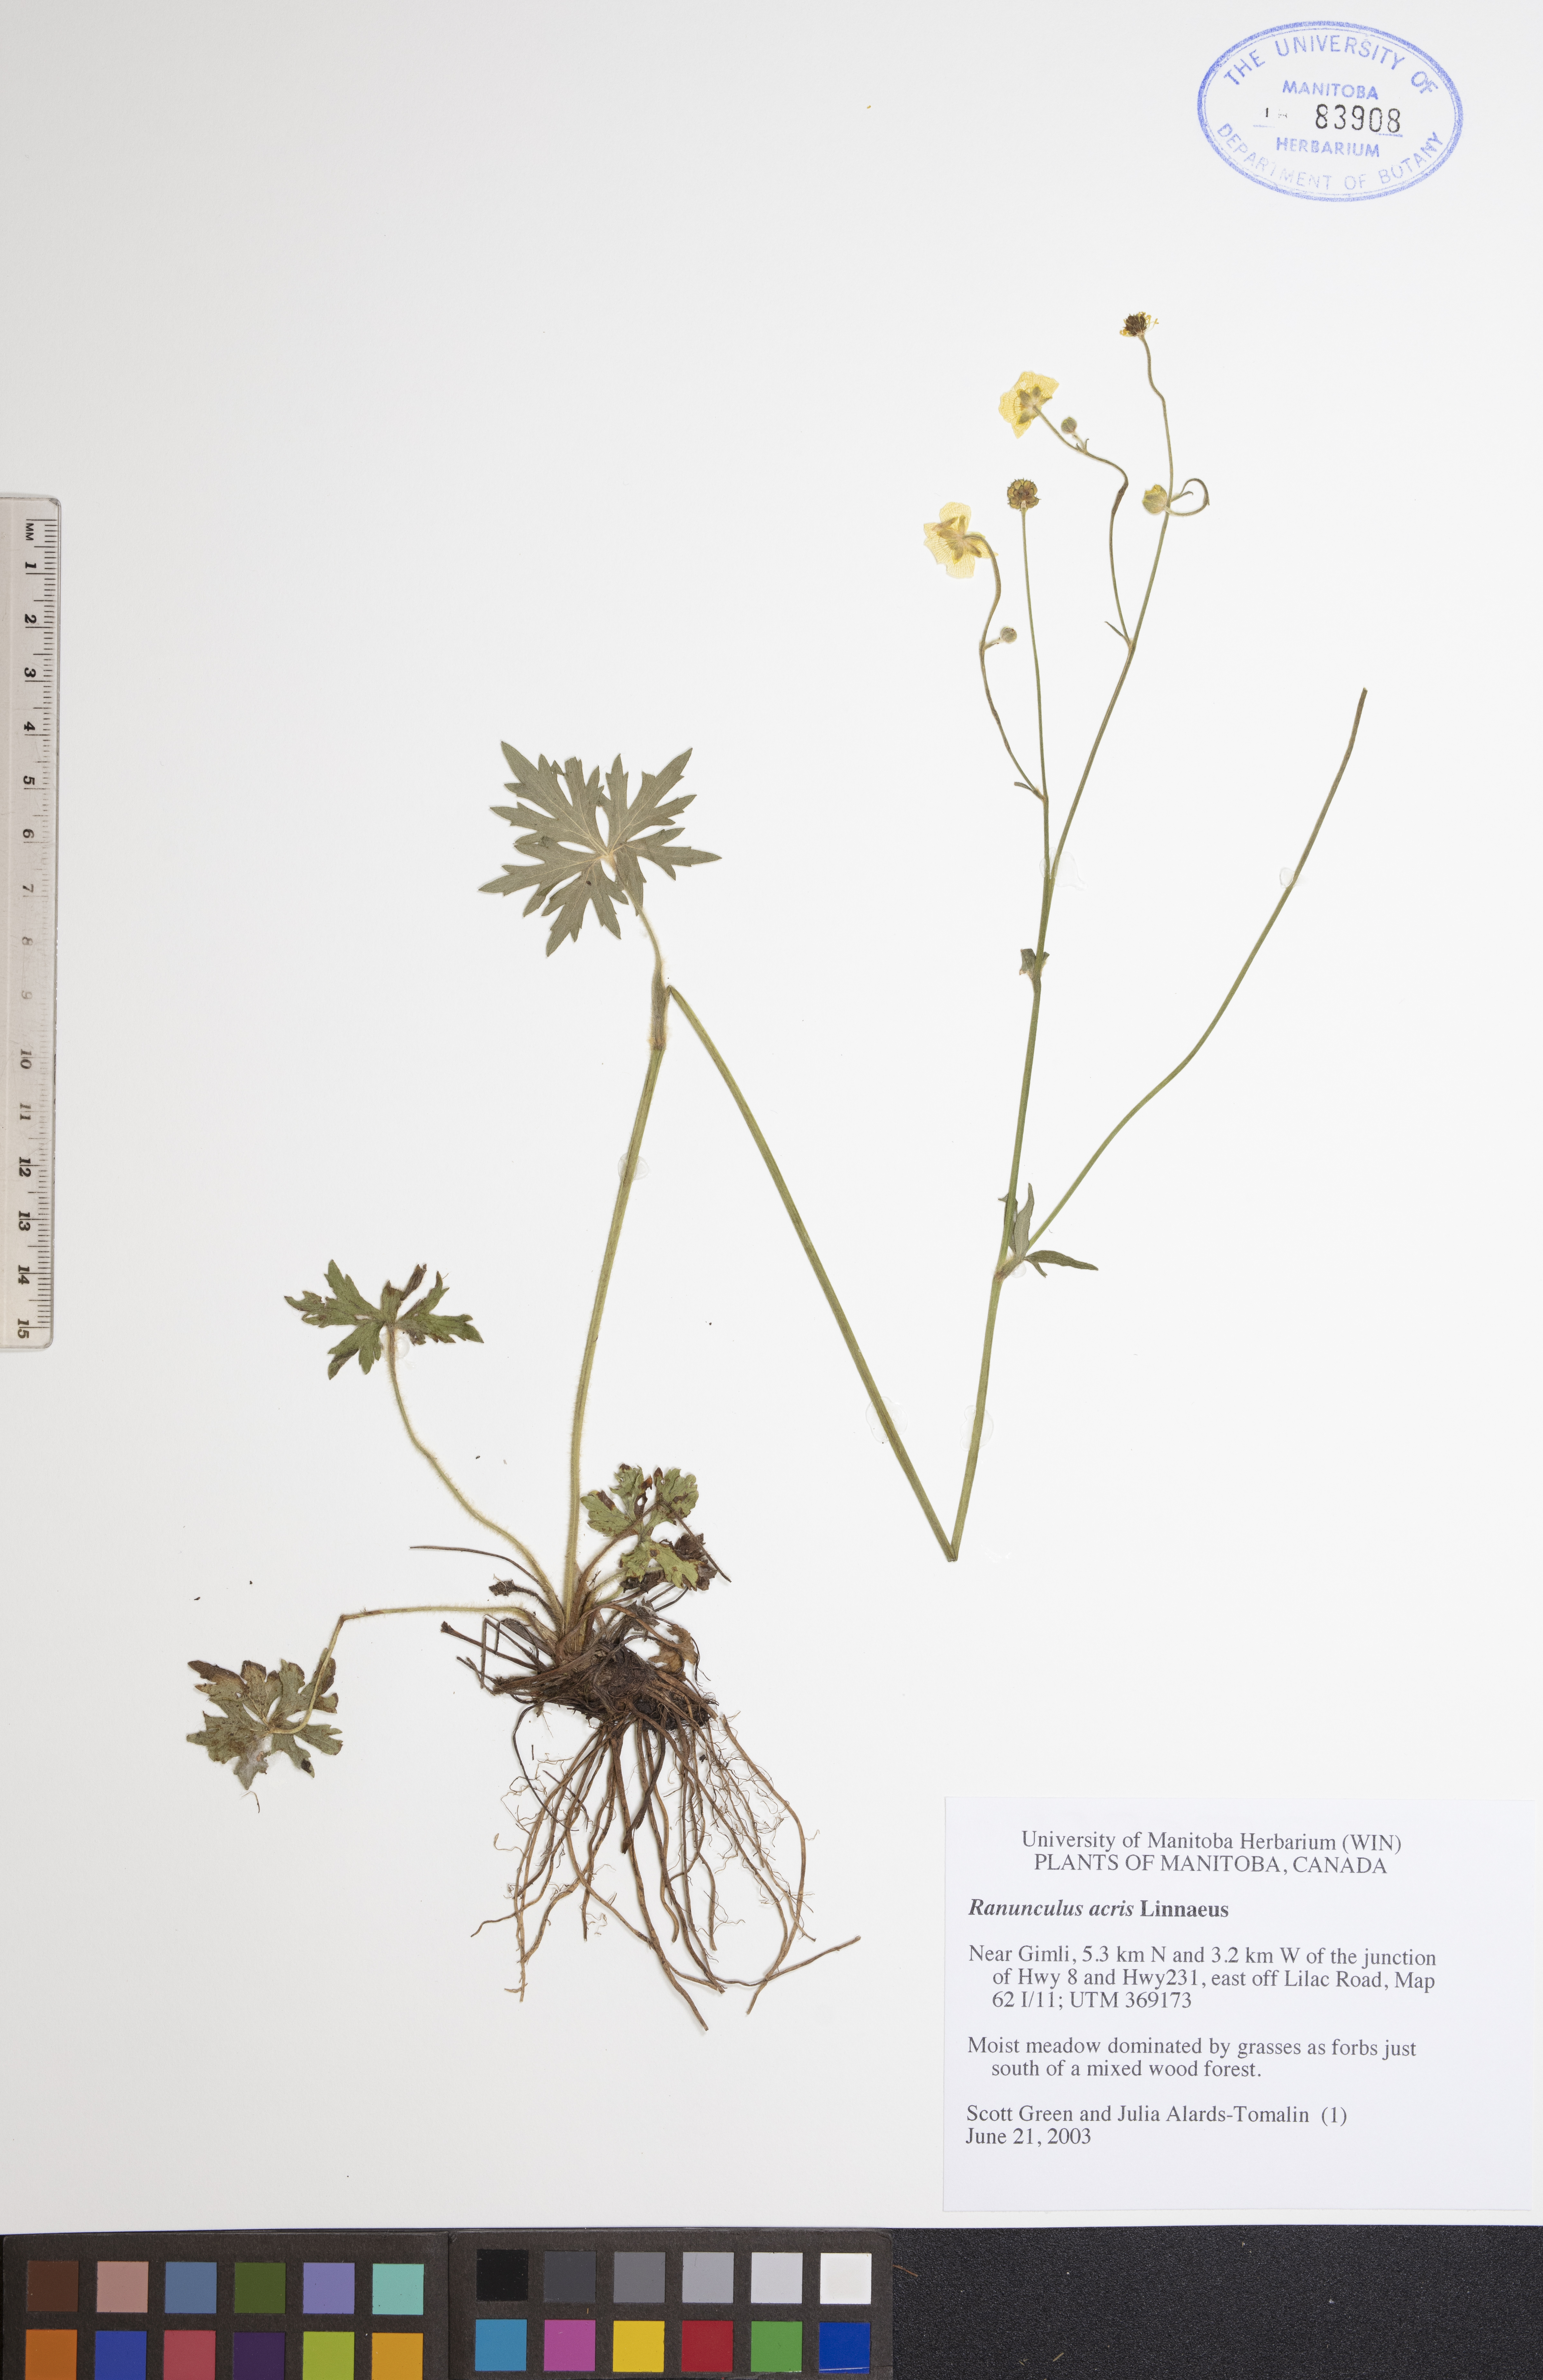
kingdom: Plantae
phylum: Tracheophyta
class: Magnoliopsida
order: Ranunculales
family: Ranunculaceae
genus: Ranunculus
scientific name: Ranunculus acris
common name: Meadow buttercup
